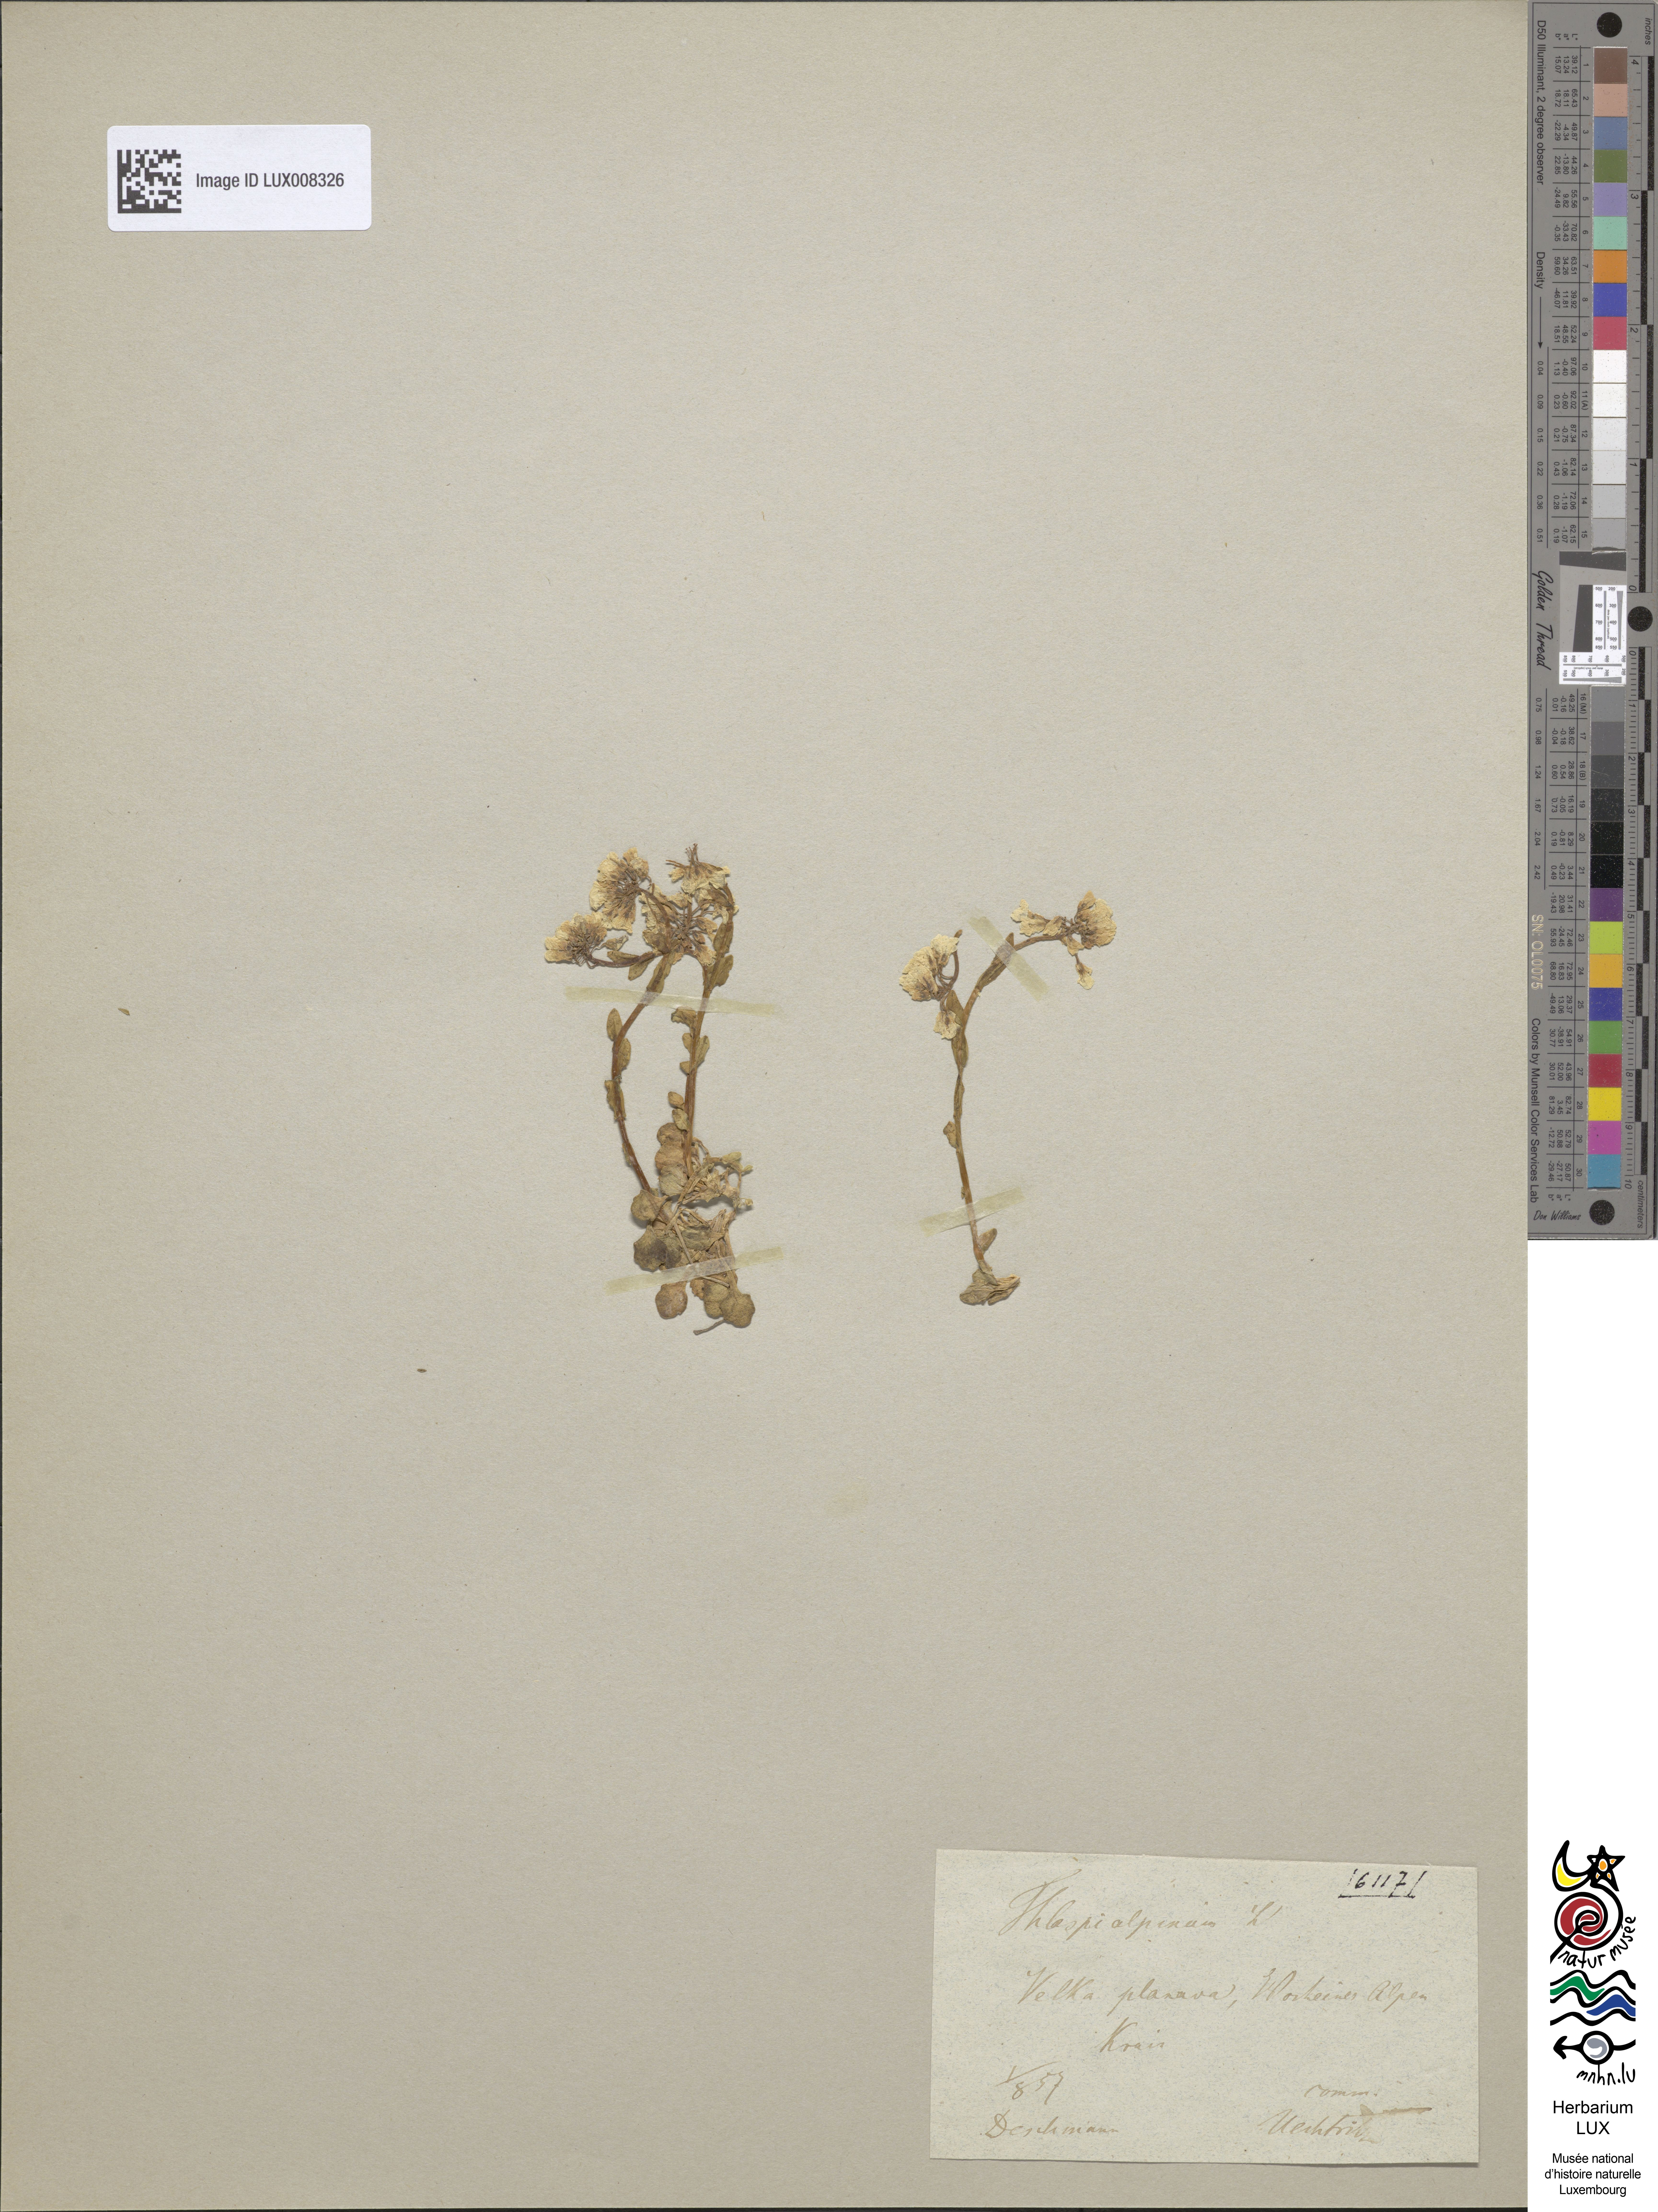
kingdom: Plantae
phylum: Tracheophyta
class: Magnoliopsida
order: Brassicales
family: Brassicaceae
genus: Noccaea
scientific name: Noccaea alpestris
